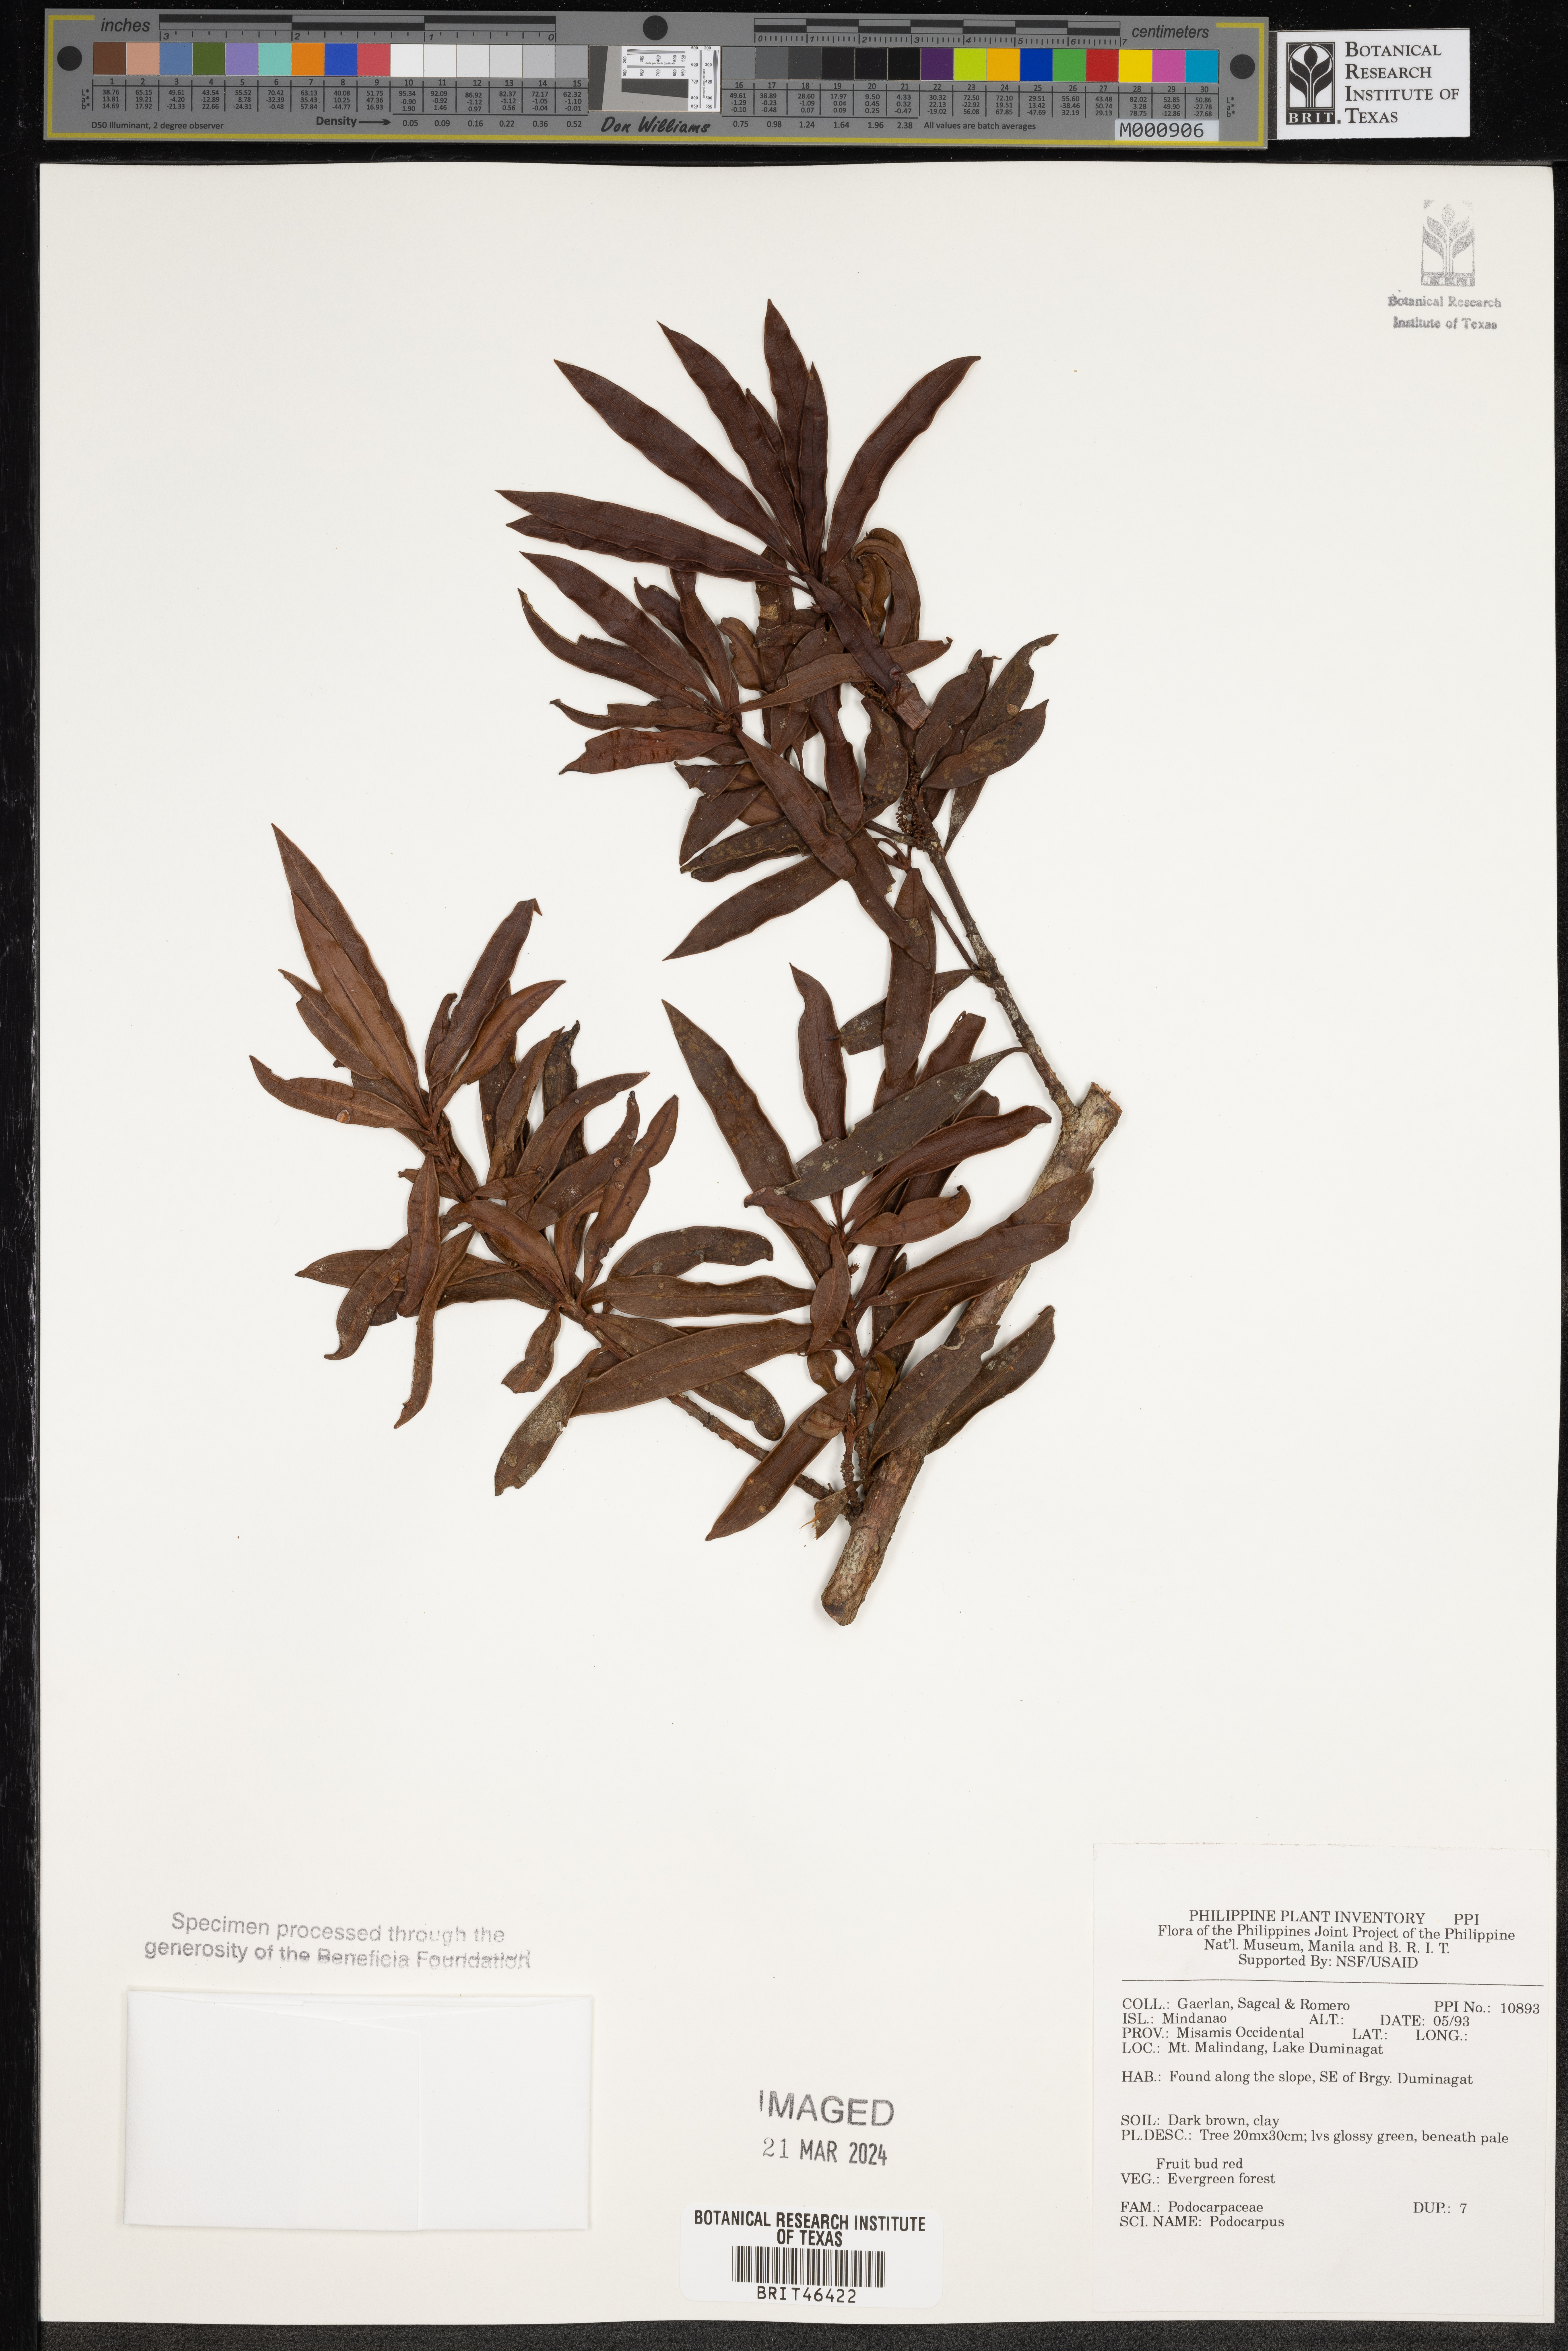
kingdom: Plantae
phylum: Tracheophyta
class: Pinopsida
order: Pinales
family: Podocarpaceae
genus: Podocarpus
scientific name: Podocarpus
